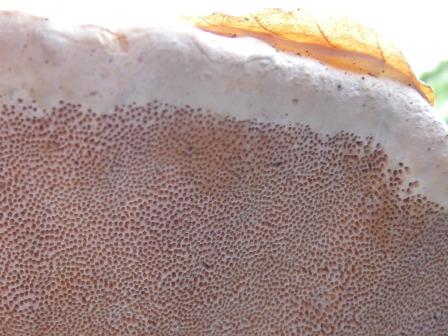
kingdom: Fungi
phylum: Basidiomycota
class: Agaricomycetes
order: Polyporales
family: Fomitopsidaceae
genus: Fomitopsis
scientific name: Fomitopsis pinicola
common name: randbæltet hovporesvamp
